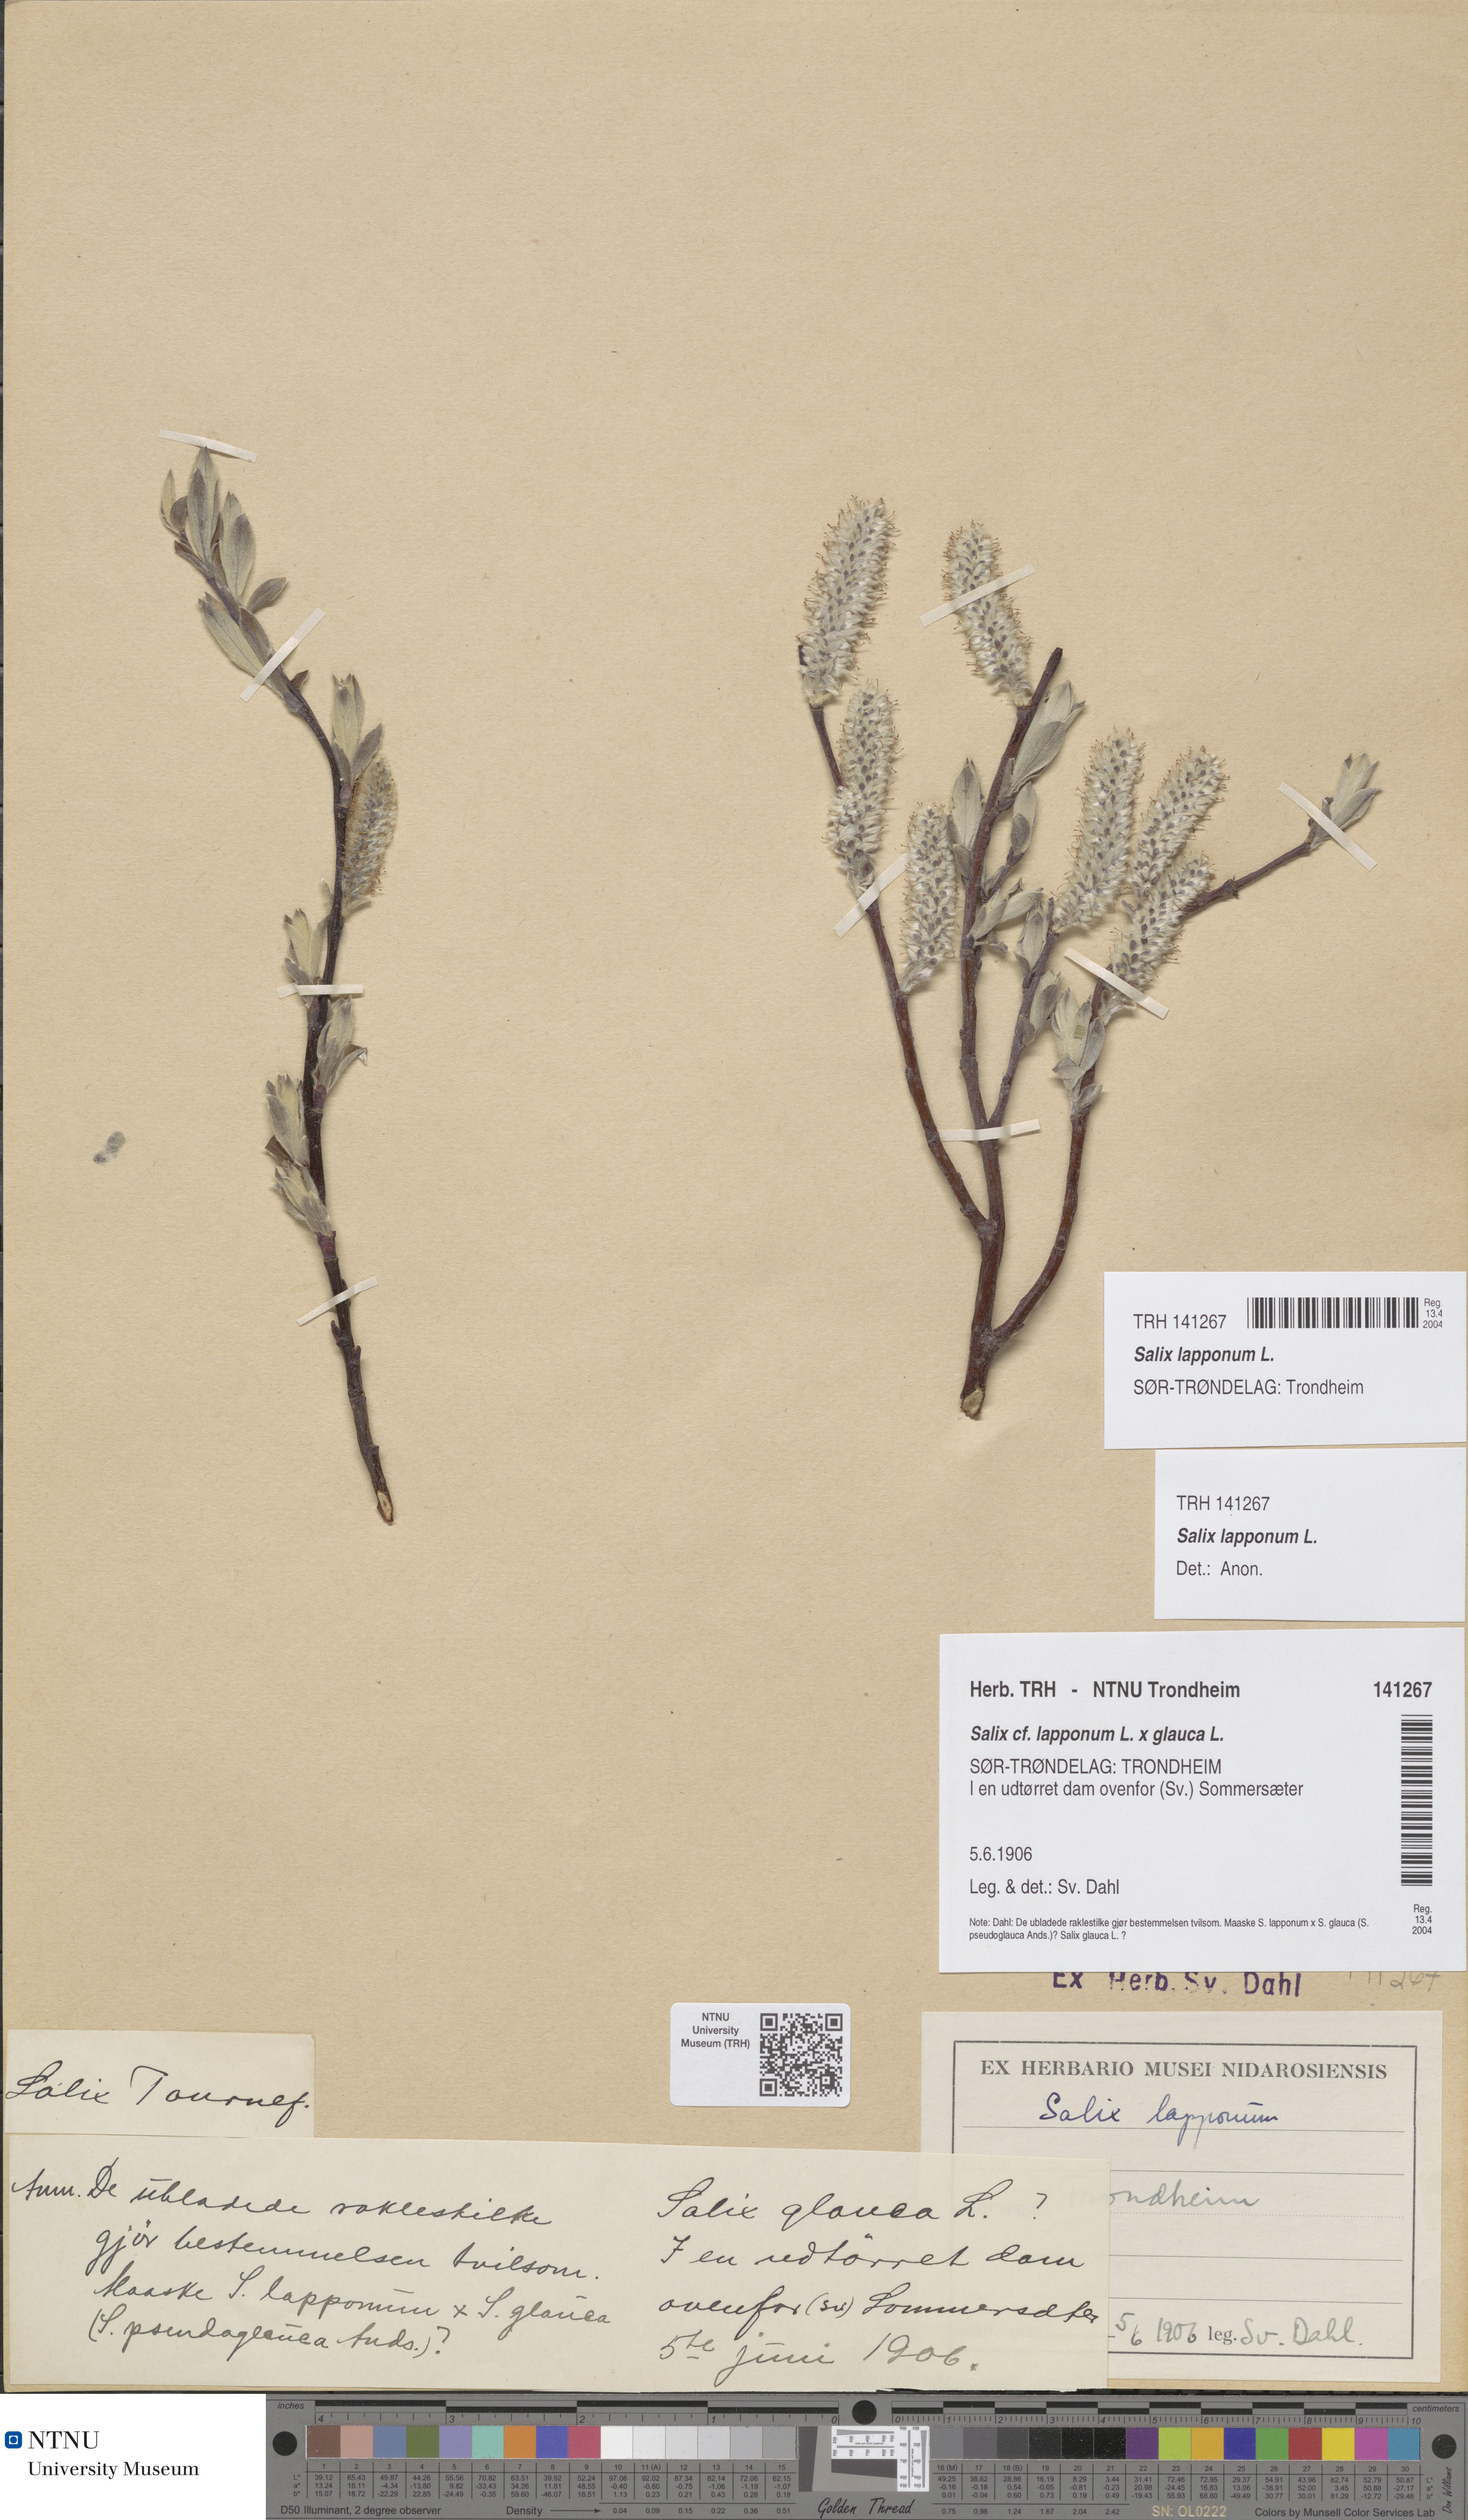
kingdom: Plantae
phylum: Tracheophyta
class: Magnoliopsida
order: Malpighiales
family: Salicaceae
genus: Salix
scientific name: Salix lapponum
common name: Downy willow
